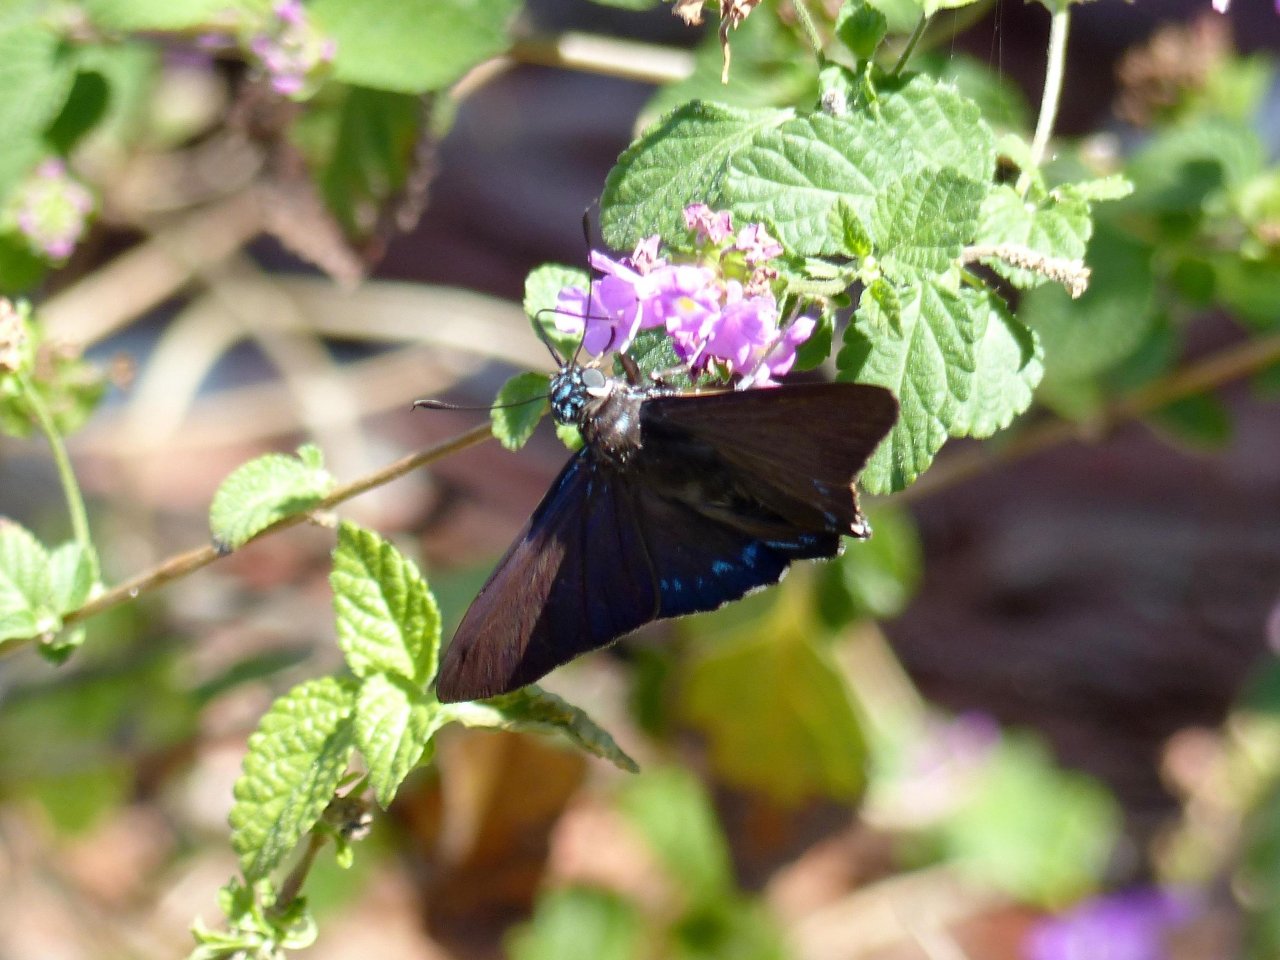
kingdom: Animalia
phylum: Arthropoda
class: Insecta
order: Lepidoptera
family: Hesperiidae
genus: Phocides
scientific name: Phocides pigmalion
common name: Mangrove Skipper
